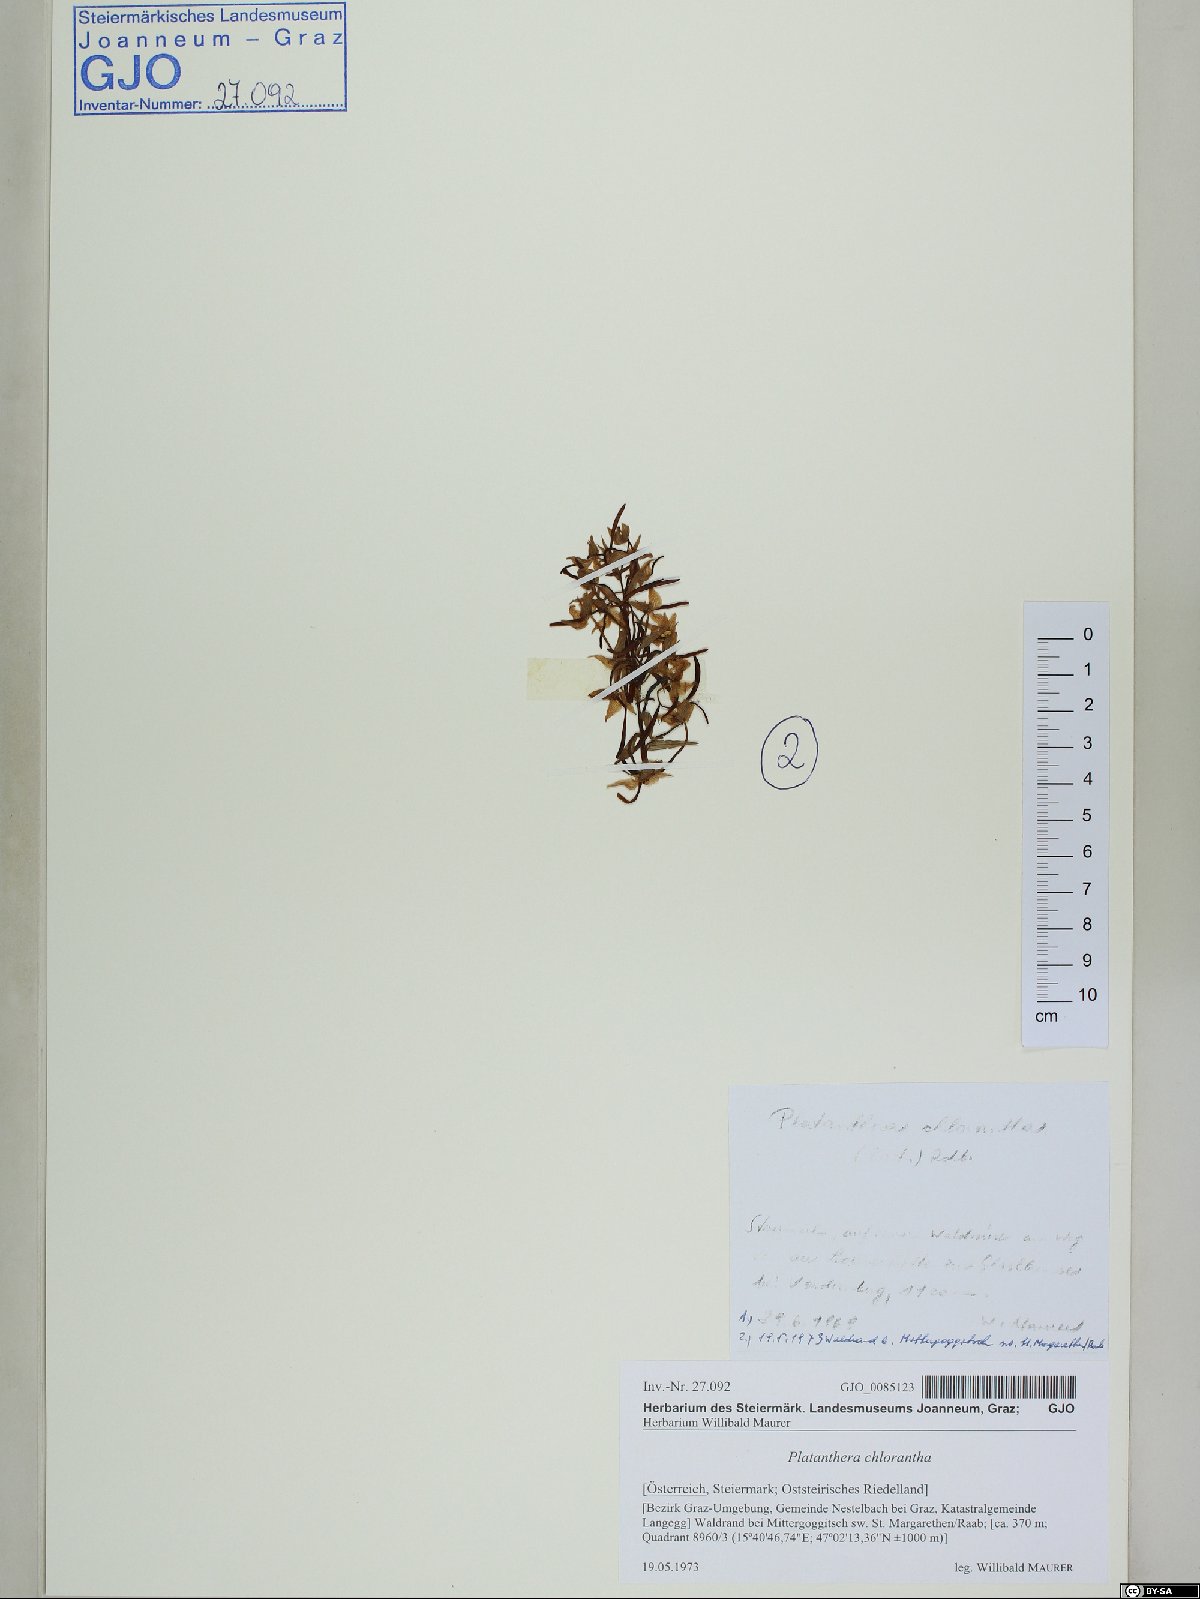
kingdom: Plantae
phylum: Tracheophyta
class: Liliopsida
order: Asparagales
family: Orchidaceae
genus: Platanthera
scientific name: Platanthera chlorantha
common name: Greater butterfly-orchid
